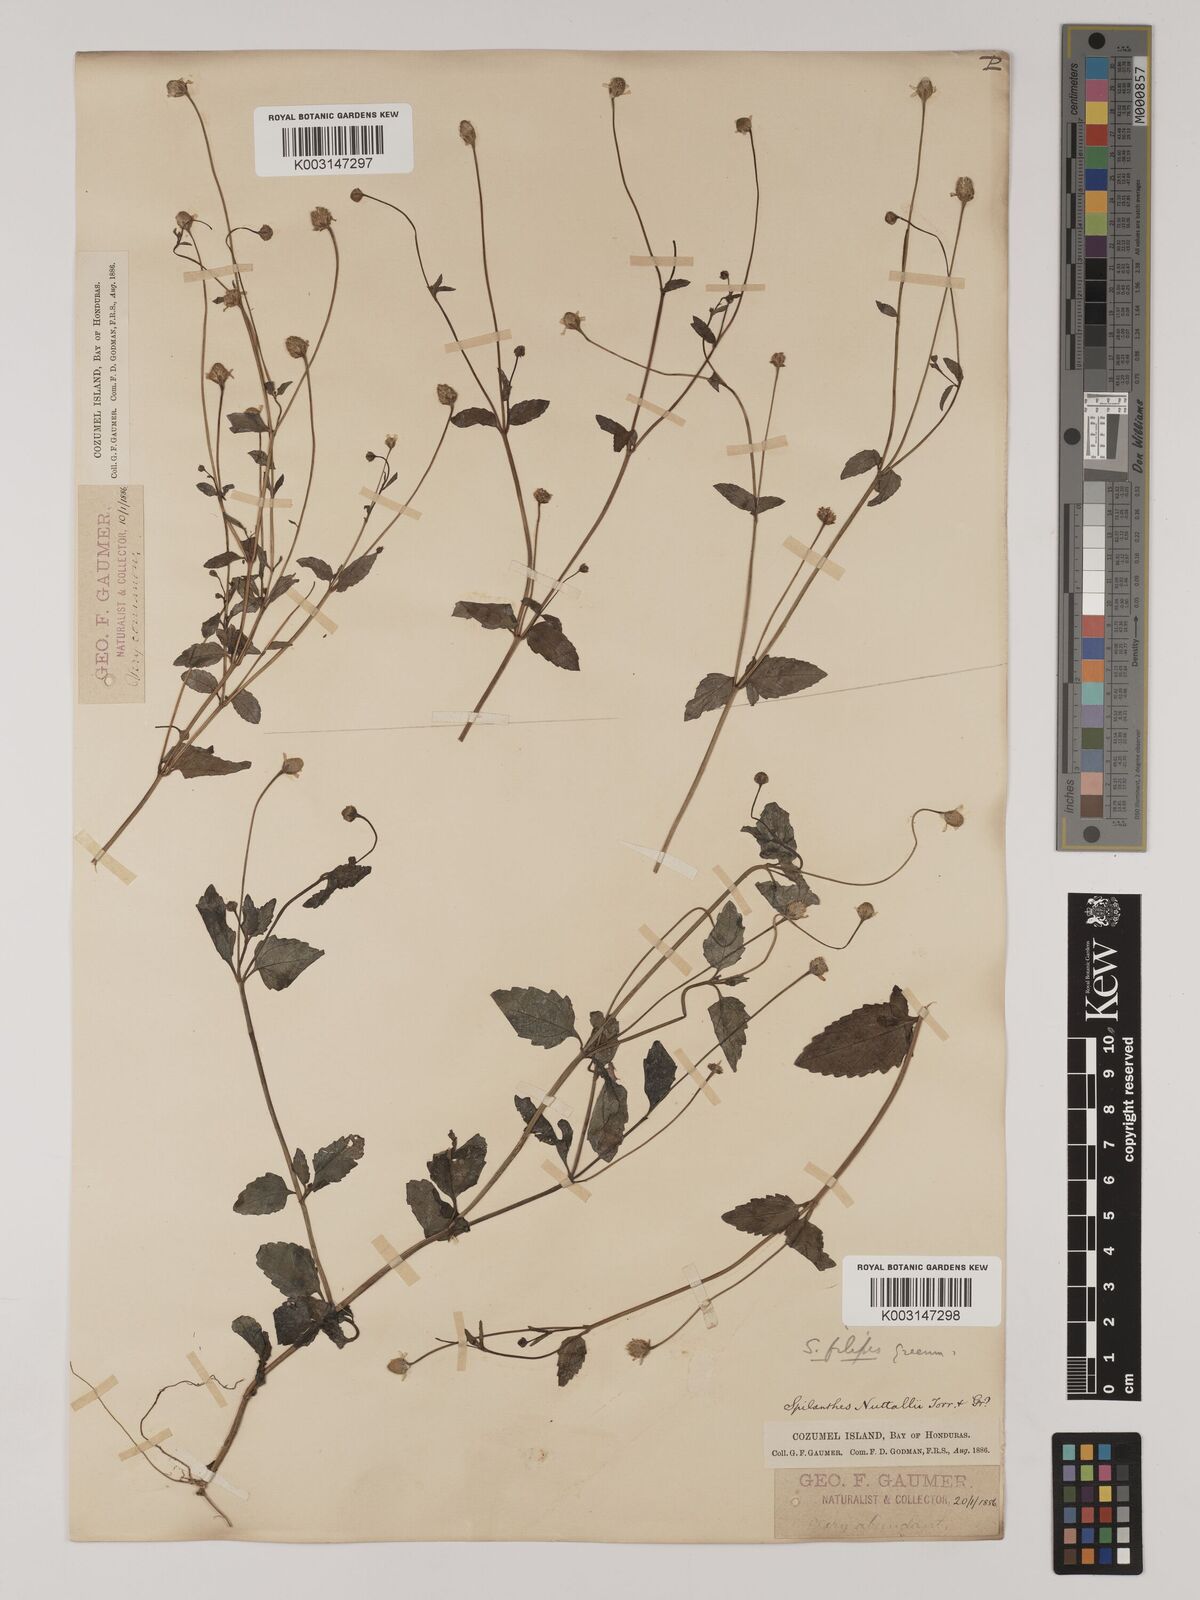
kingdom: Plantae
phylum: Tracheophyta
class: Magnoliopsida
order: Asterales
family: Asteraceae
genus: Acmella
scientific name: Acmella filipes
